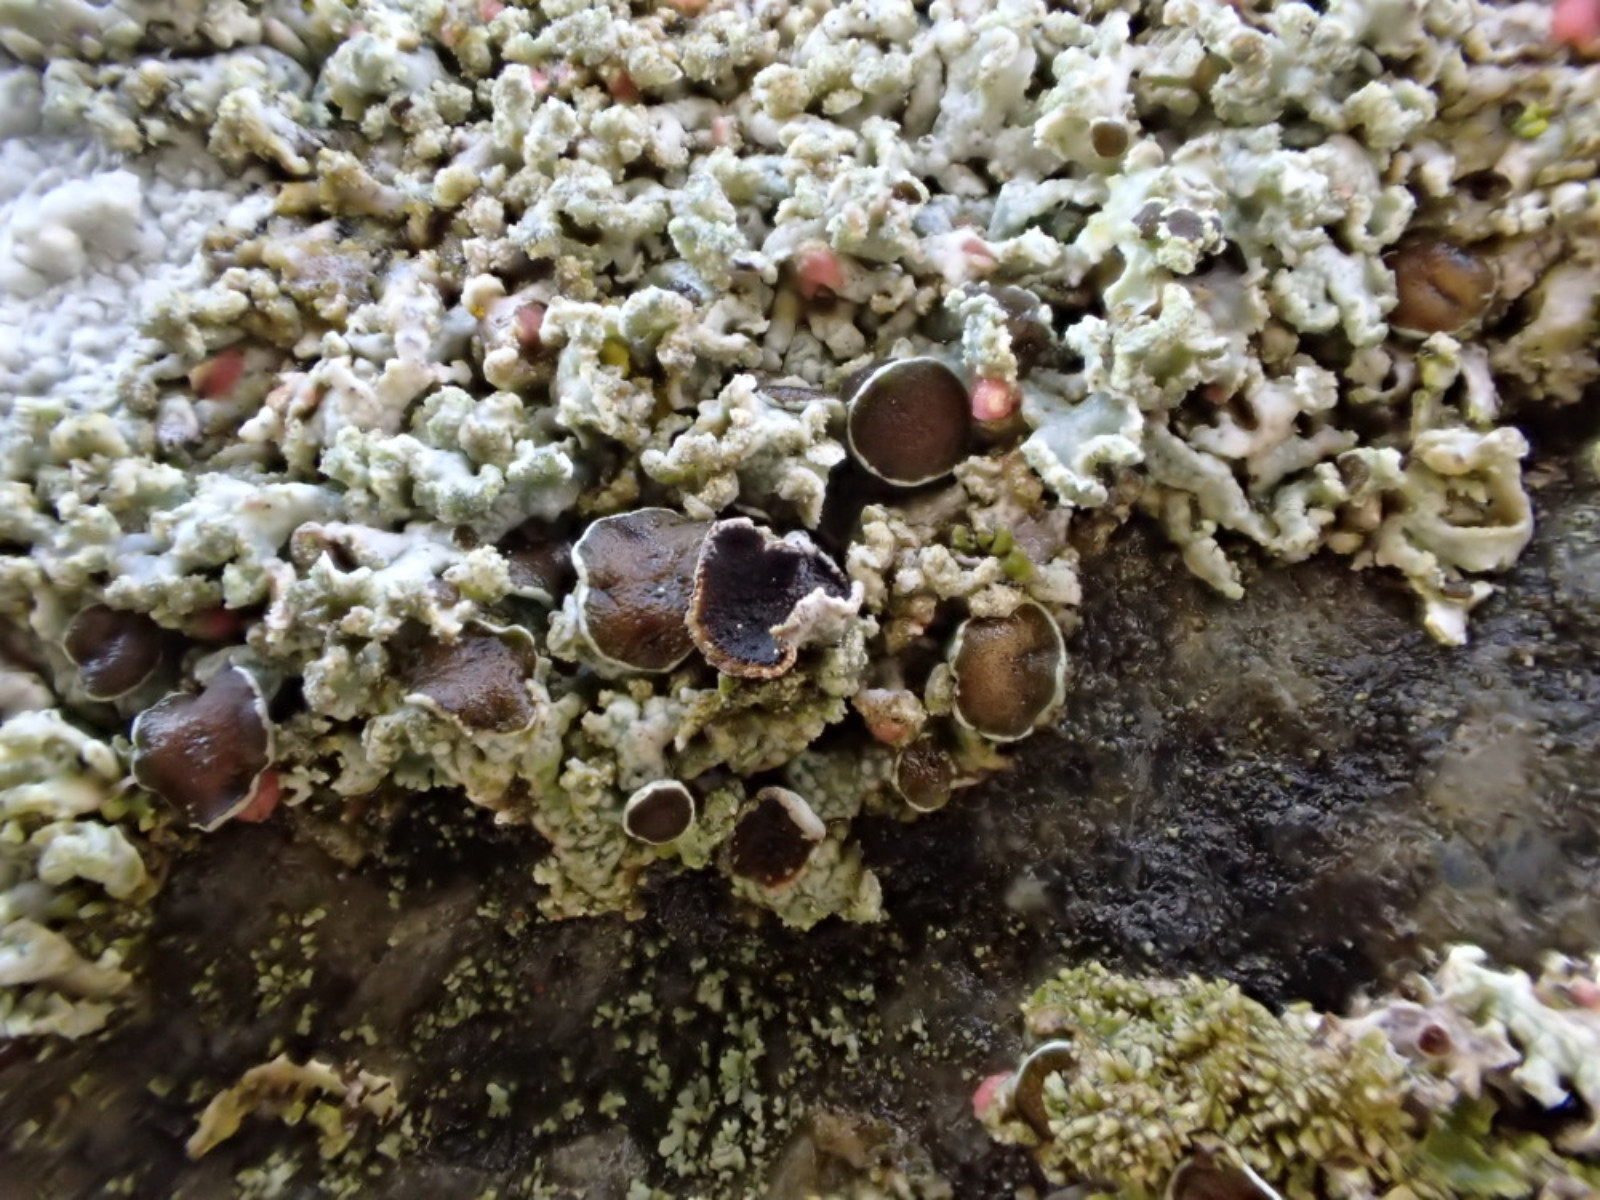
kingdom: Fungi
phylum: Ascomycota
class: Lecanoromycetes
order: Caliciales
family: Physciaceae
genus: Physcia
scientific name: Physcia tenella
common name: spæd rosetlav
